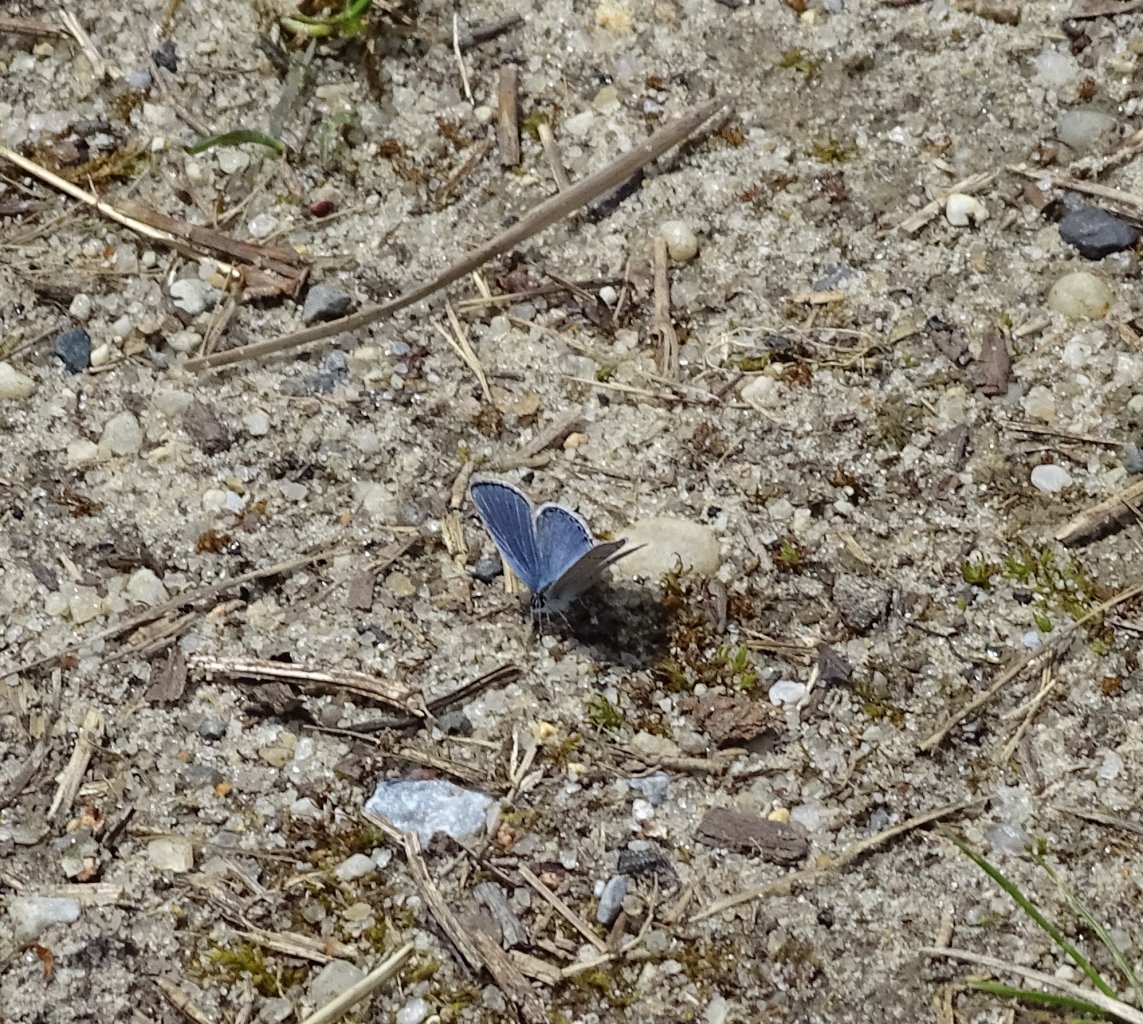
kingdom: Animalia
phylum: Arthropoda
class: Insecta
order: Lepidoptera
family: Lycaenidae
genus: Elkalyce
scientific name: Elkalyce comyntas
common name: Eastern Tailed-Blue
